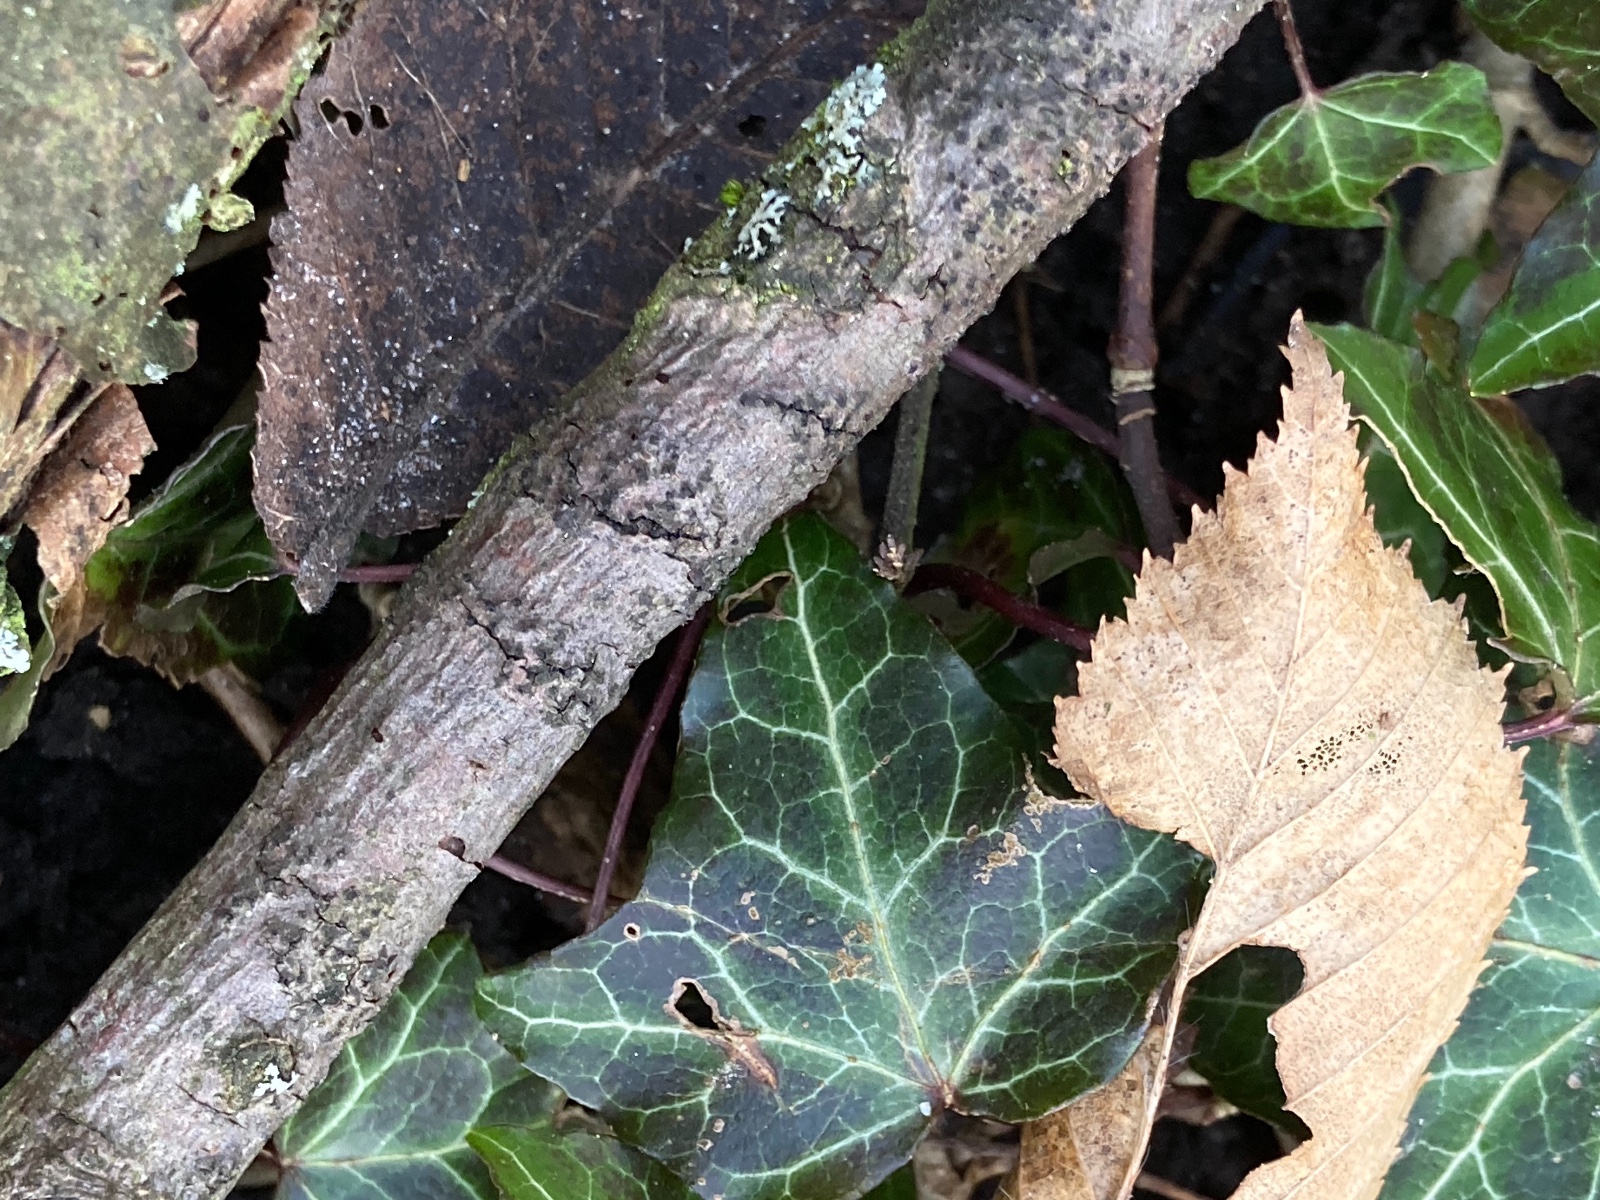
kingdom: Fungi
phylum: Ascomycota
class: Sordariomycetes
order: Xylariales
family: Diatrypaceae
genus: Quaternaria
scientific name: Quaternaria dissepta
